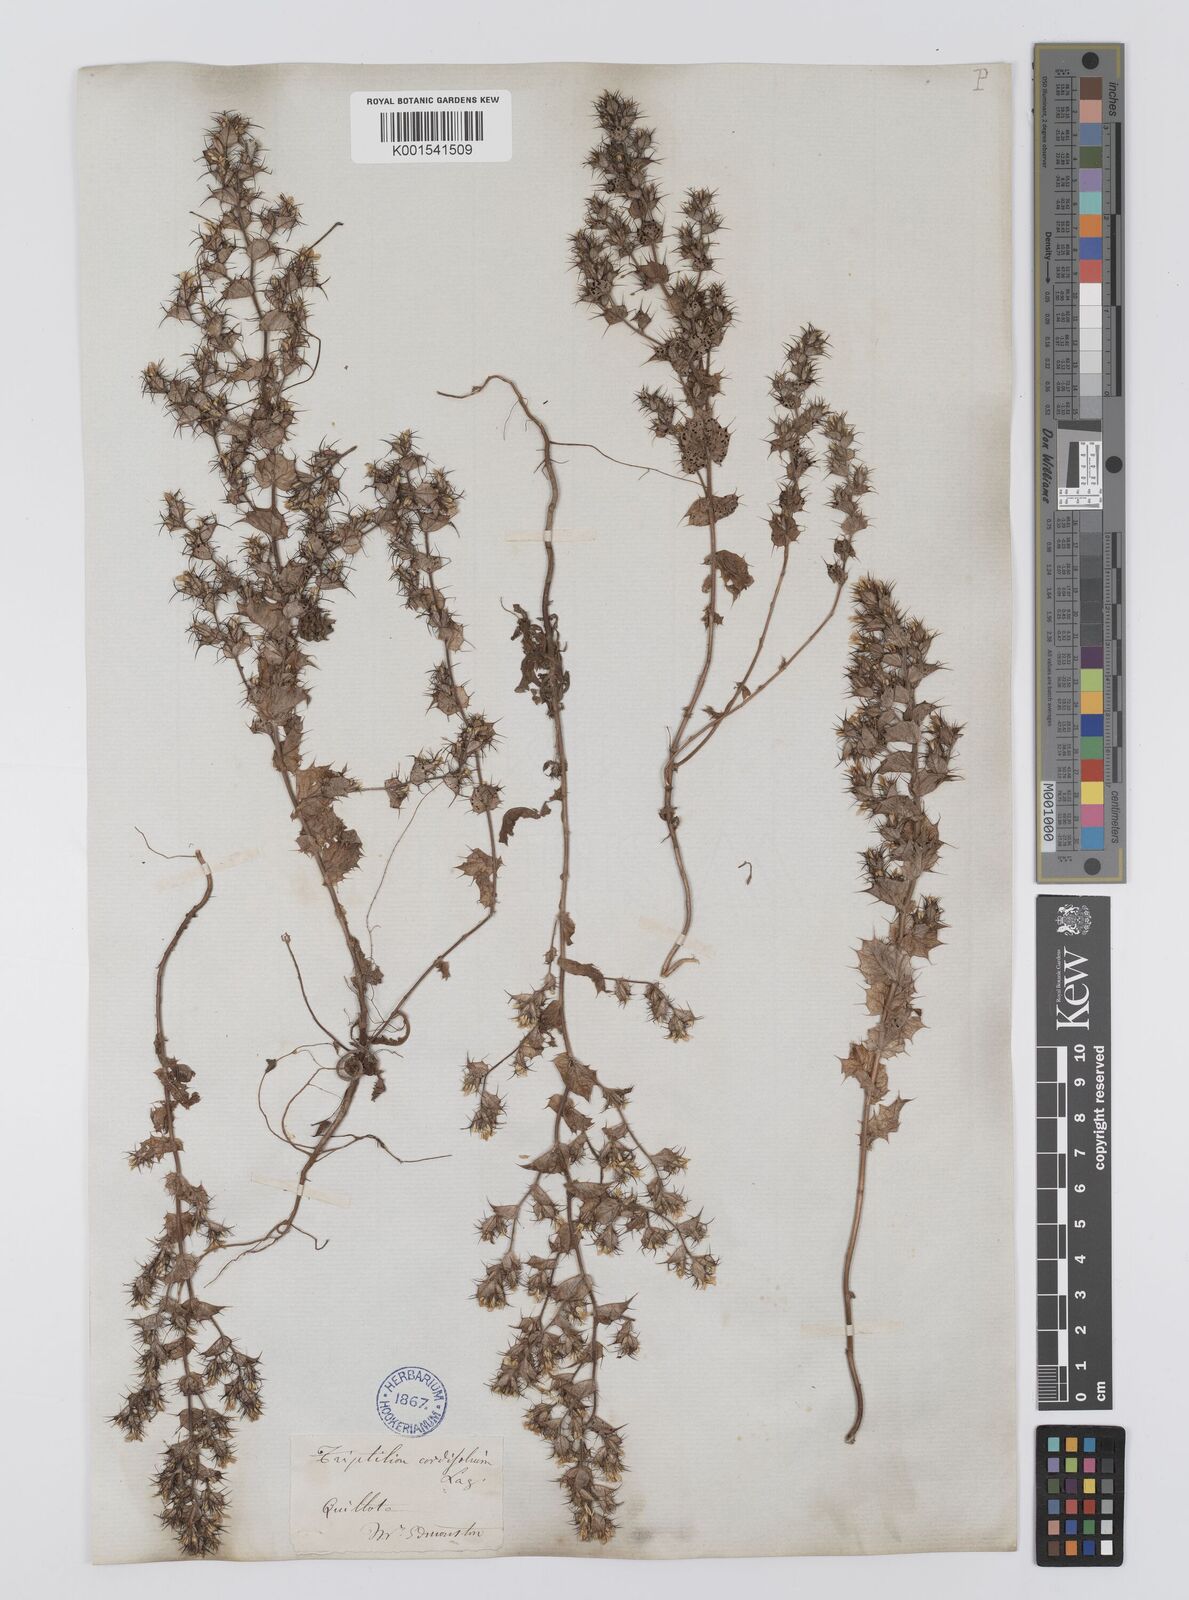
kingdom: Plantae
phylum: Tracheophyta
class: Magnoliopsida
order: Asterales
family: Asteraceae
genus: Triptilion
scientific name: Triptilion cordifolium
